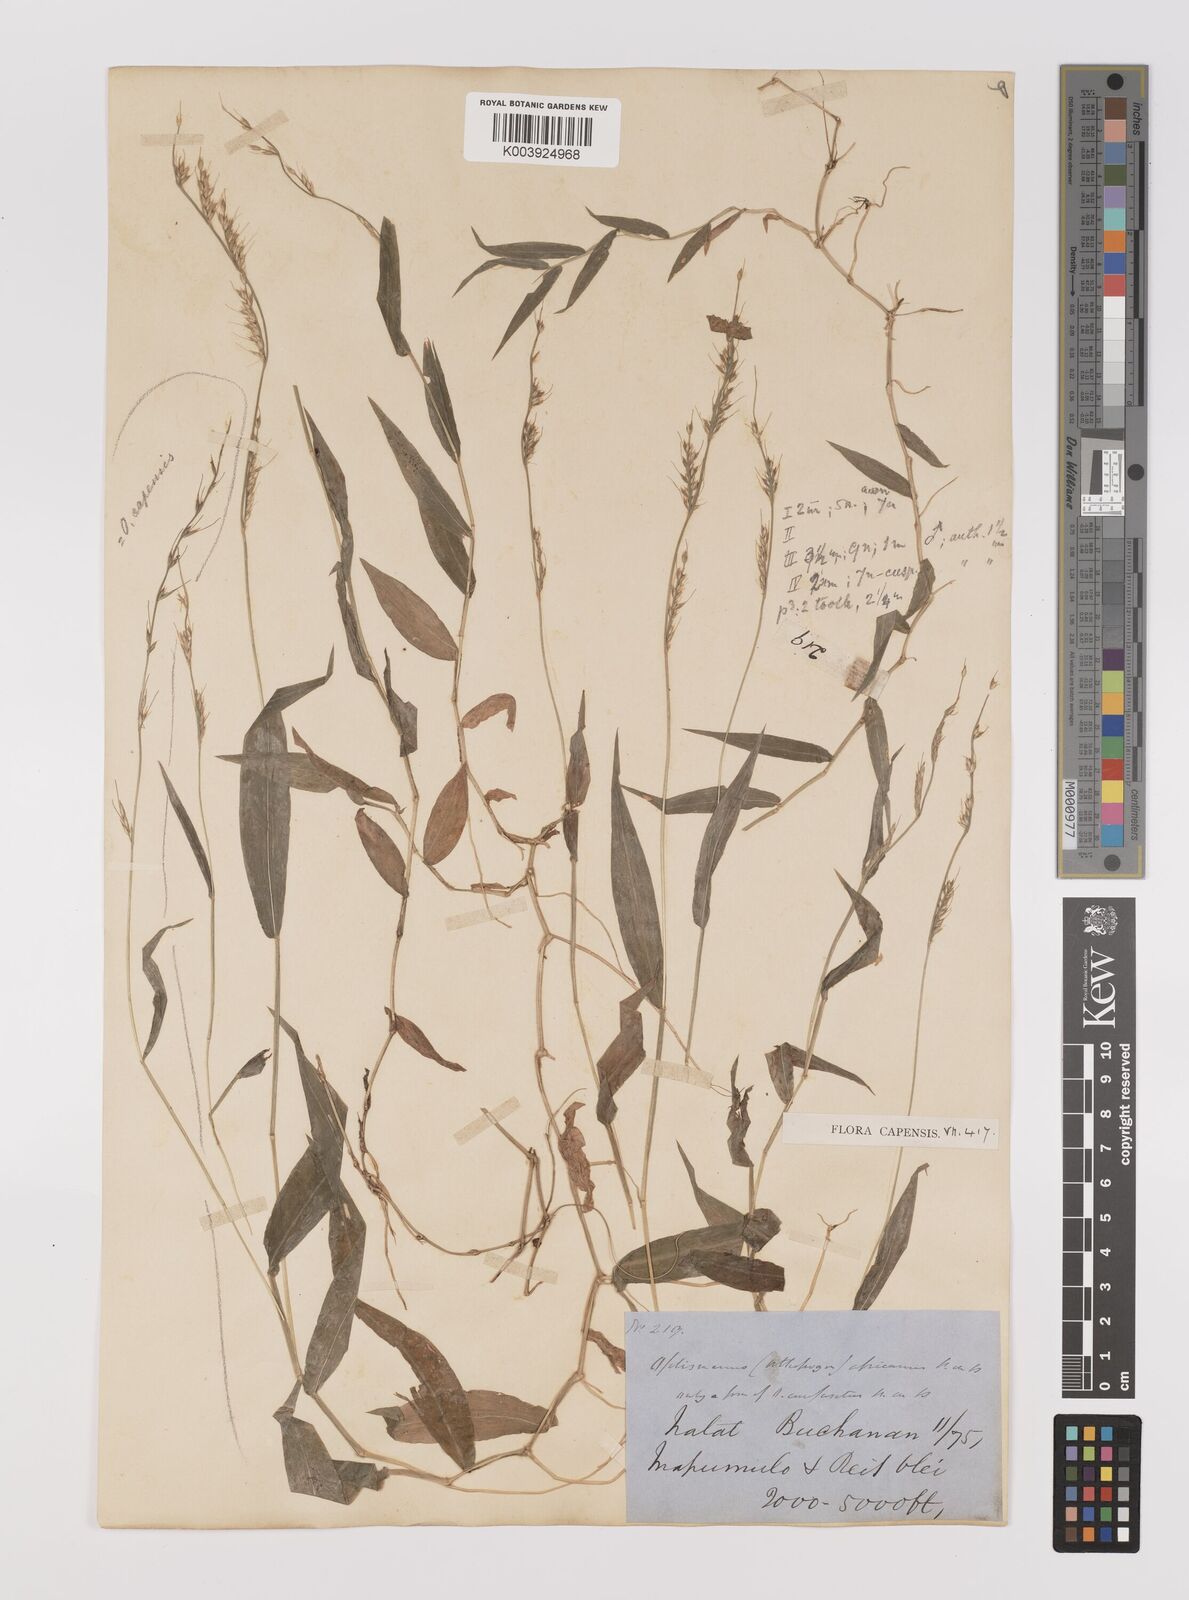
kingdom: Plantae
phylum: Tracheophyta
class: Liliopsida
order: Poales
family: Poaceae
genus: Oplismenus
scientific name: Oplismenus hirtellus
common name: Basketgrass
